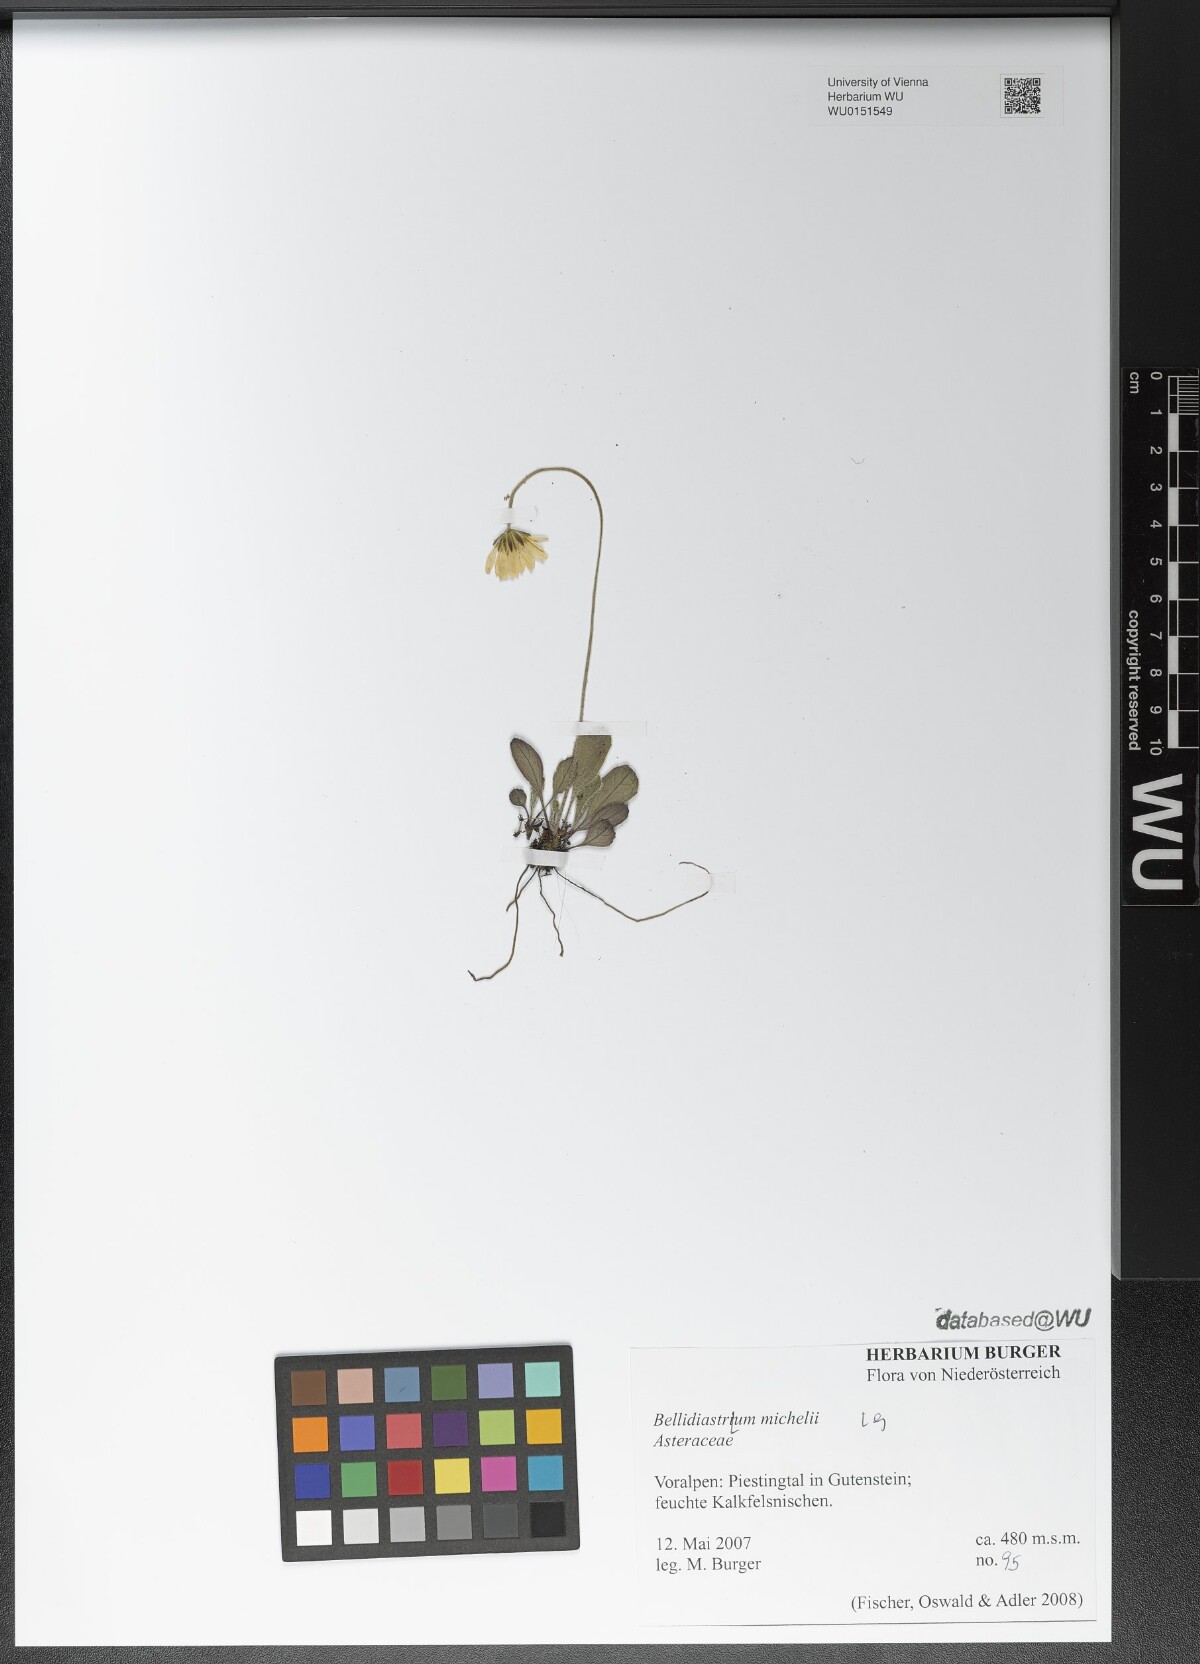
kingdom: Plantae
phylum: Tracheophyta
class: Magnoliopsida
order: Asterales
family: Asteraceae
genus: Bellidiastrum
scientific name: Bellidiastrum michelii
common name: Daisy-star aster
